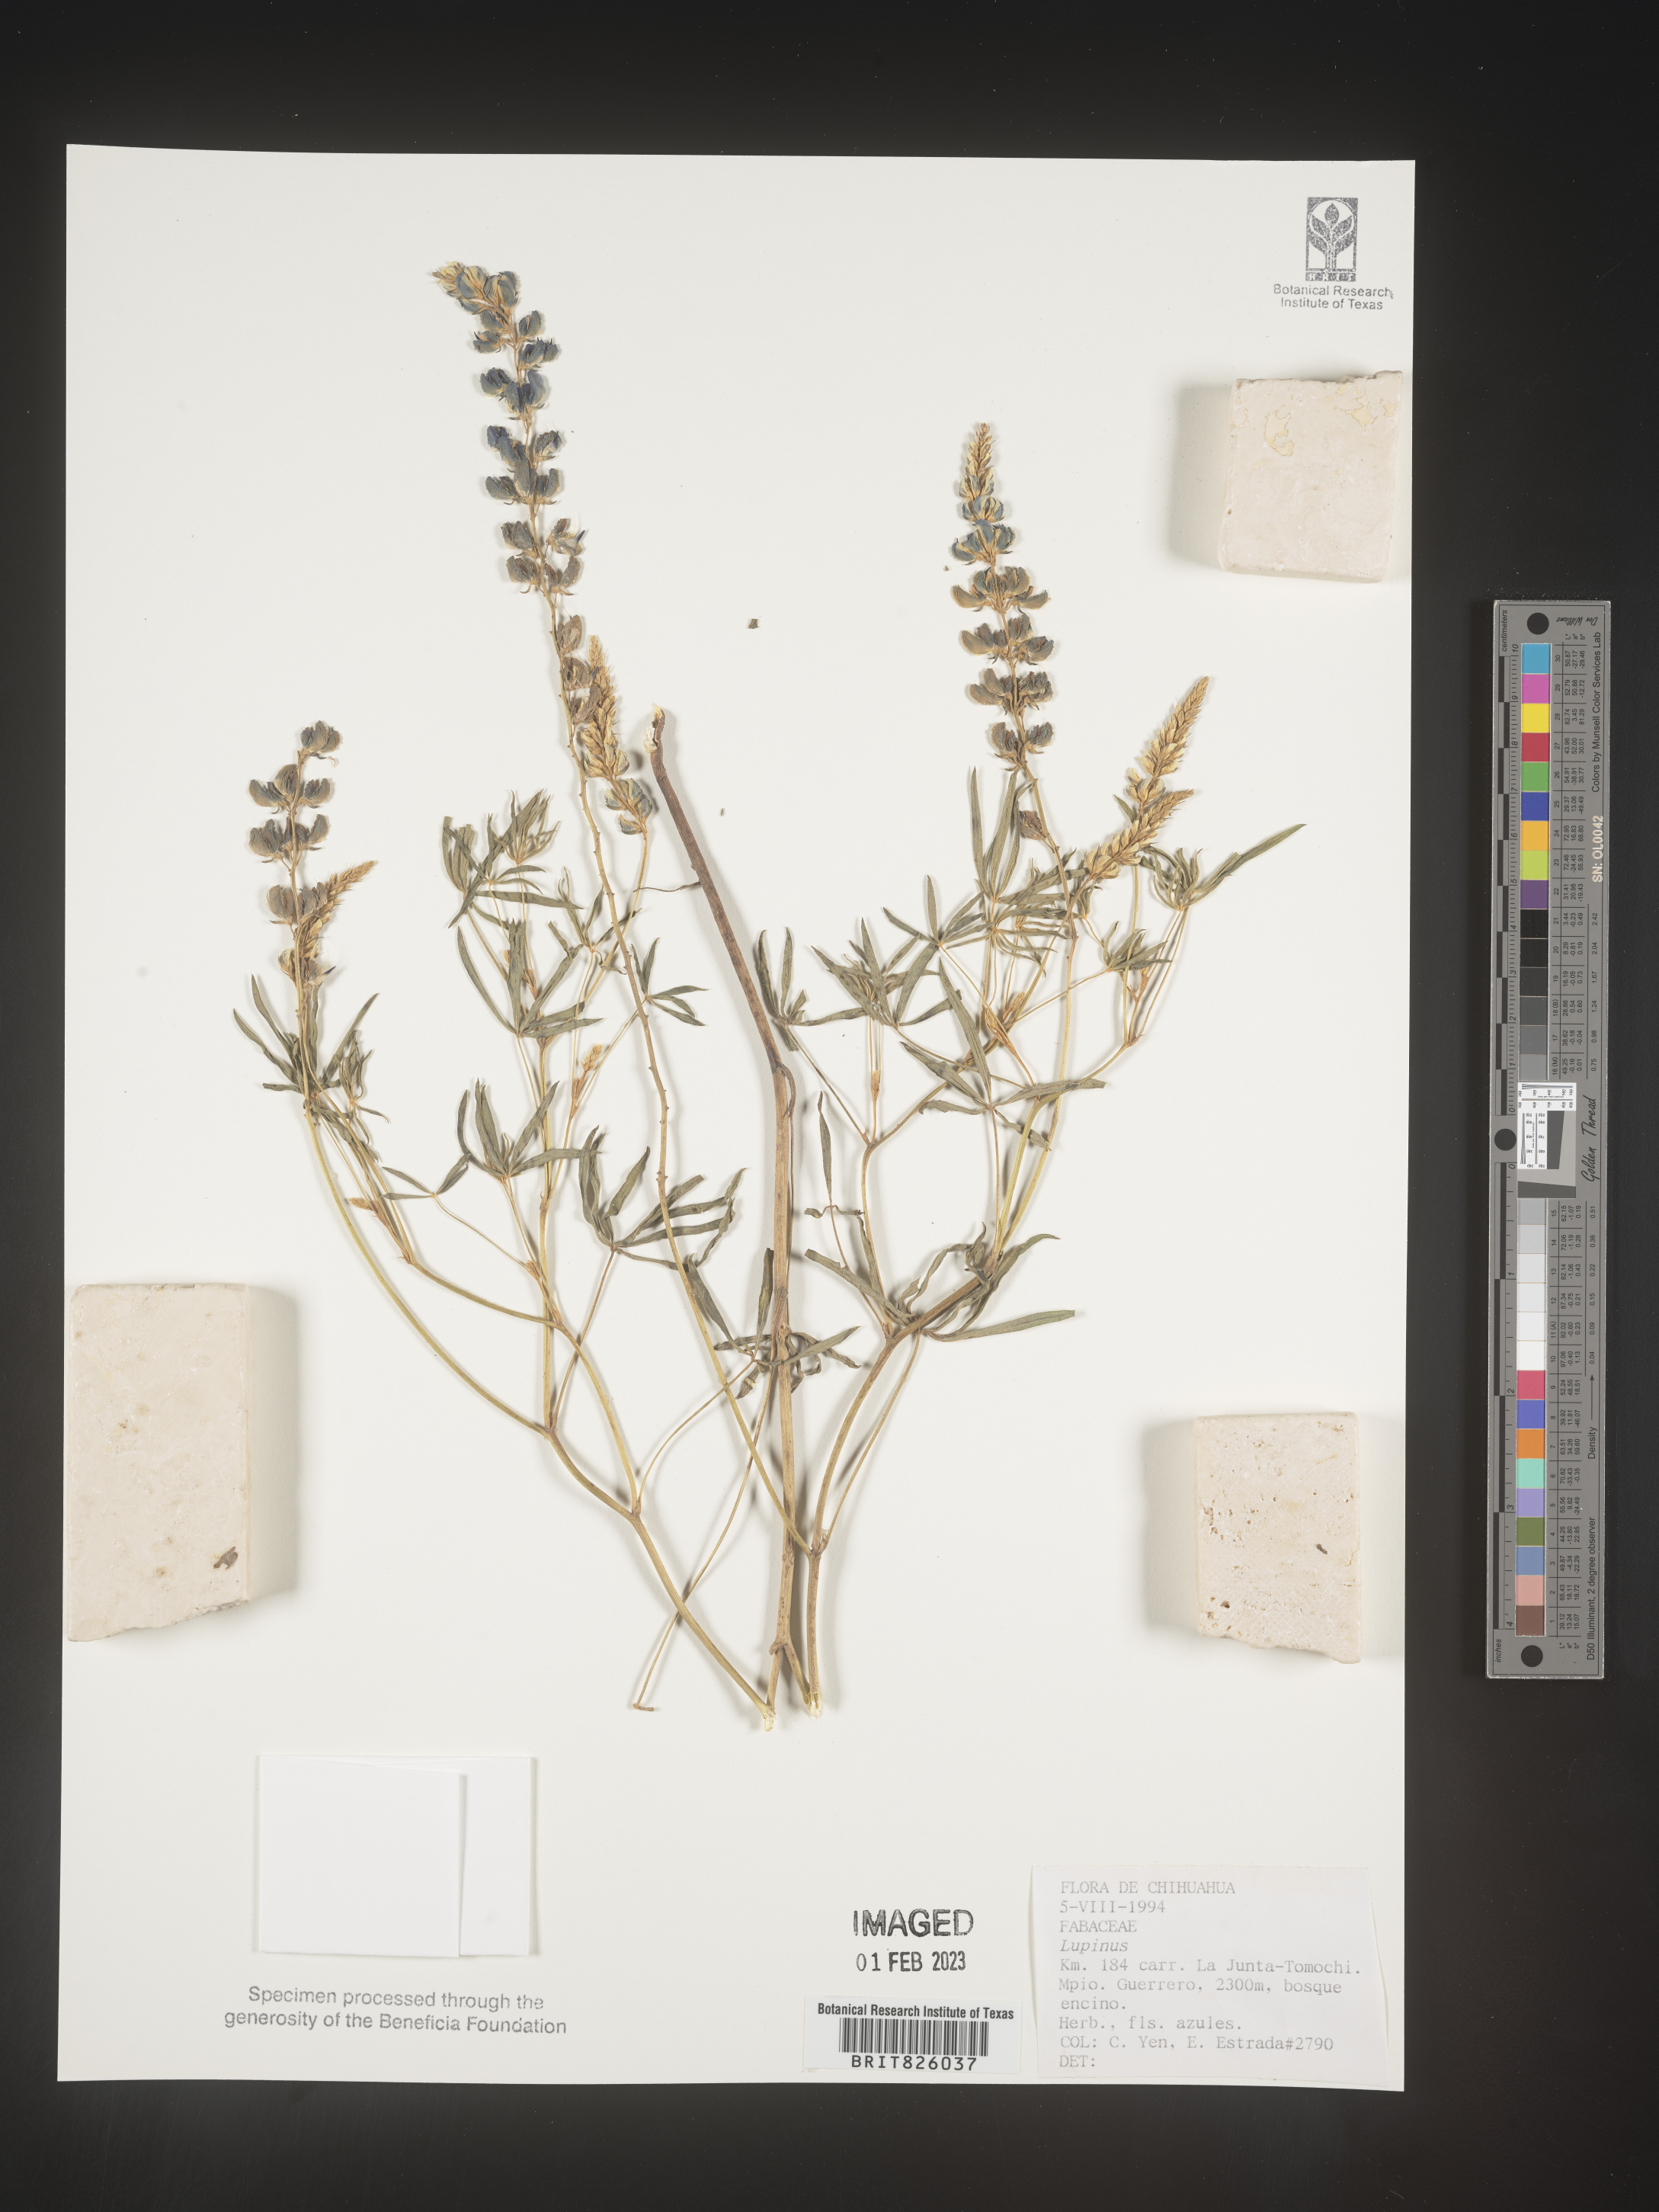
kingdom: Plantae
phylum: Tracheophyta
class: Magnoliopsida
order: Fabales
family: Fabaceae
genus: Lupinus
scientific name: Lupinus
